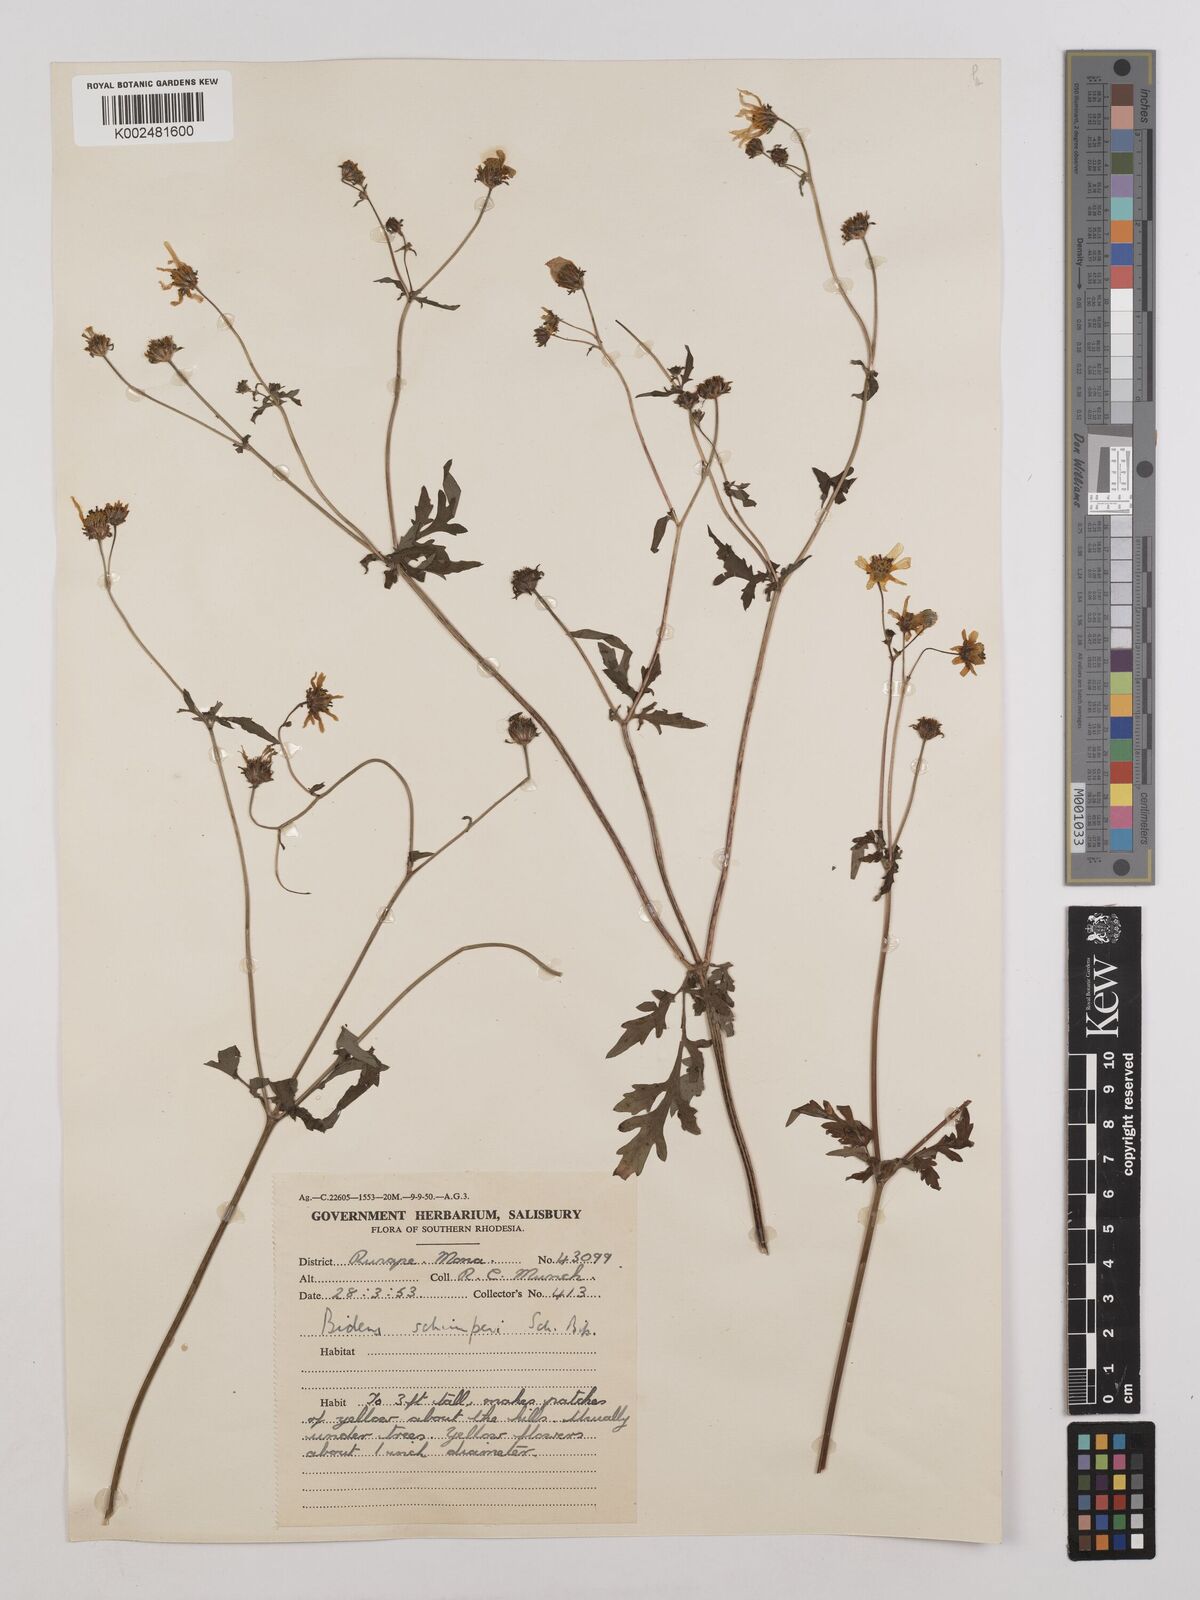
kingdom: Plantae
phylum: Tracheophyta
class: Magnoliopsida
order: Asterales
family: Asteraceae
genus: Bidens
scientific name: Bidens schimperi
